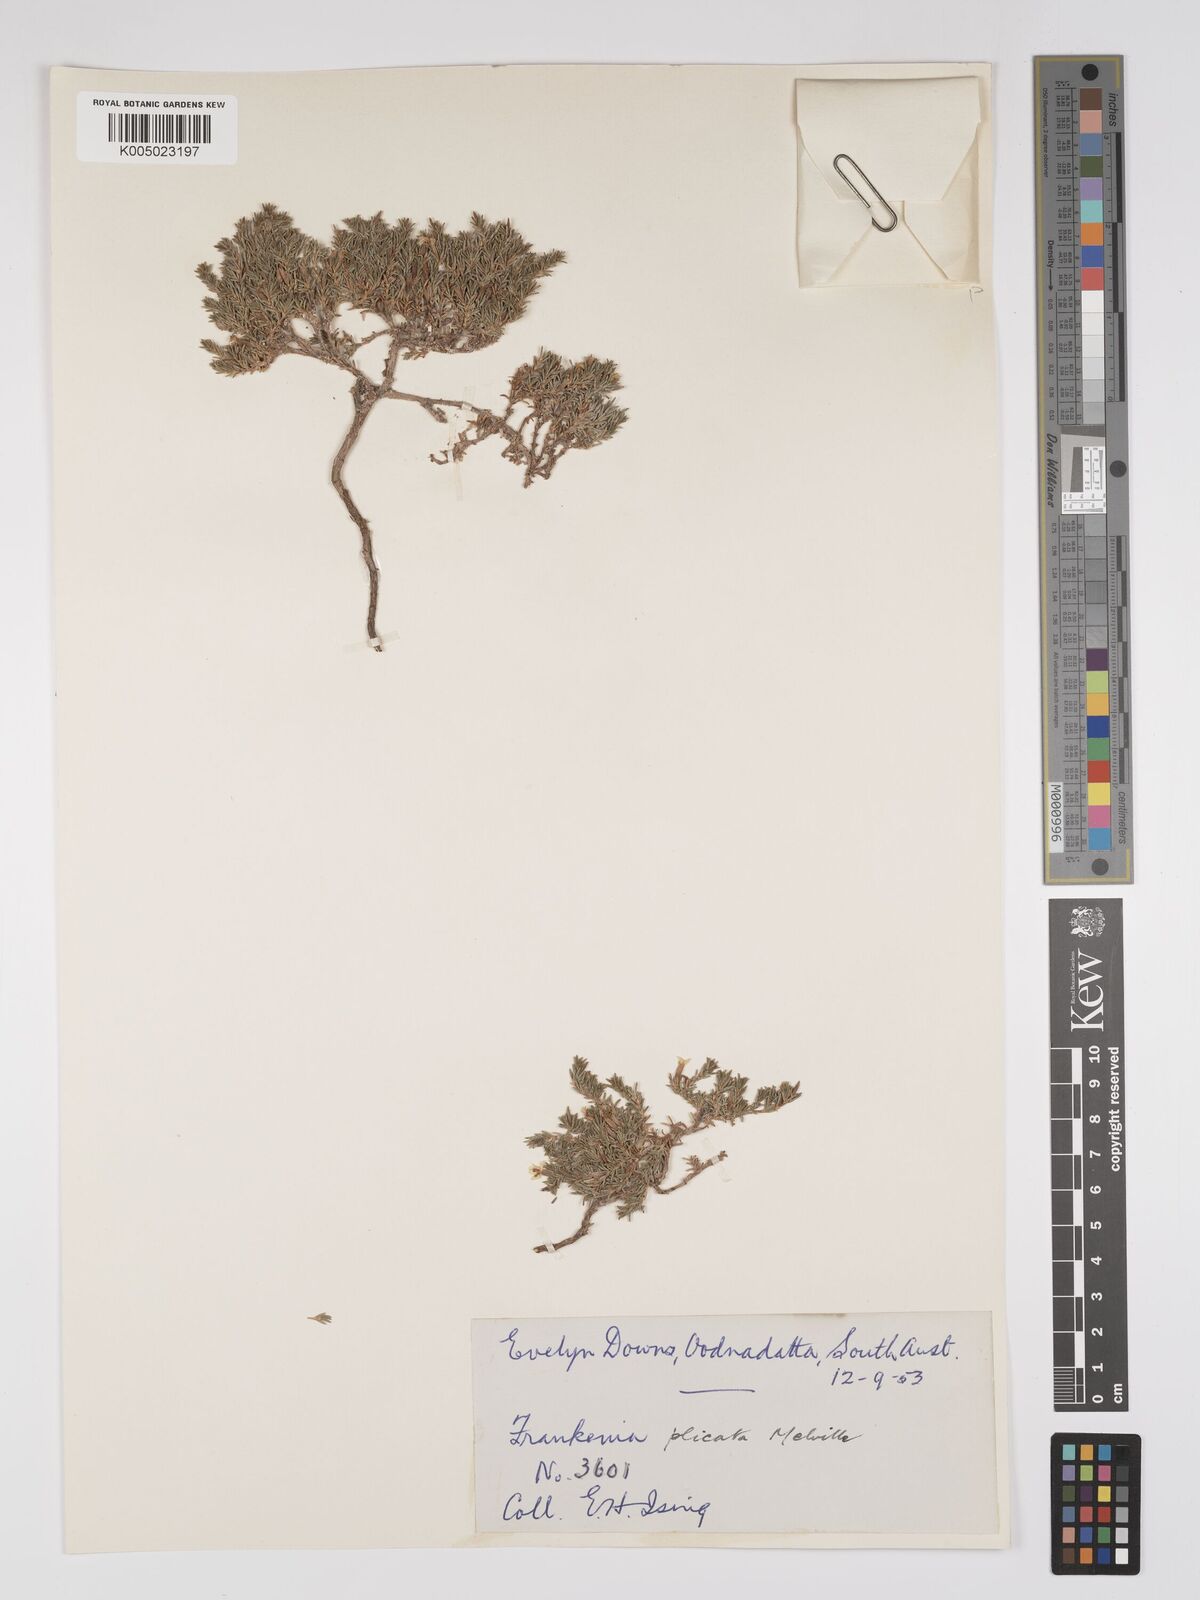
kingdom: Plantae
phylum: Tracheophyta
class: Magnoliopsida
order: Caryophyllales
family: Frankeniaceae
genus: Frankenia
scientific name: Frankenia plicata
